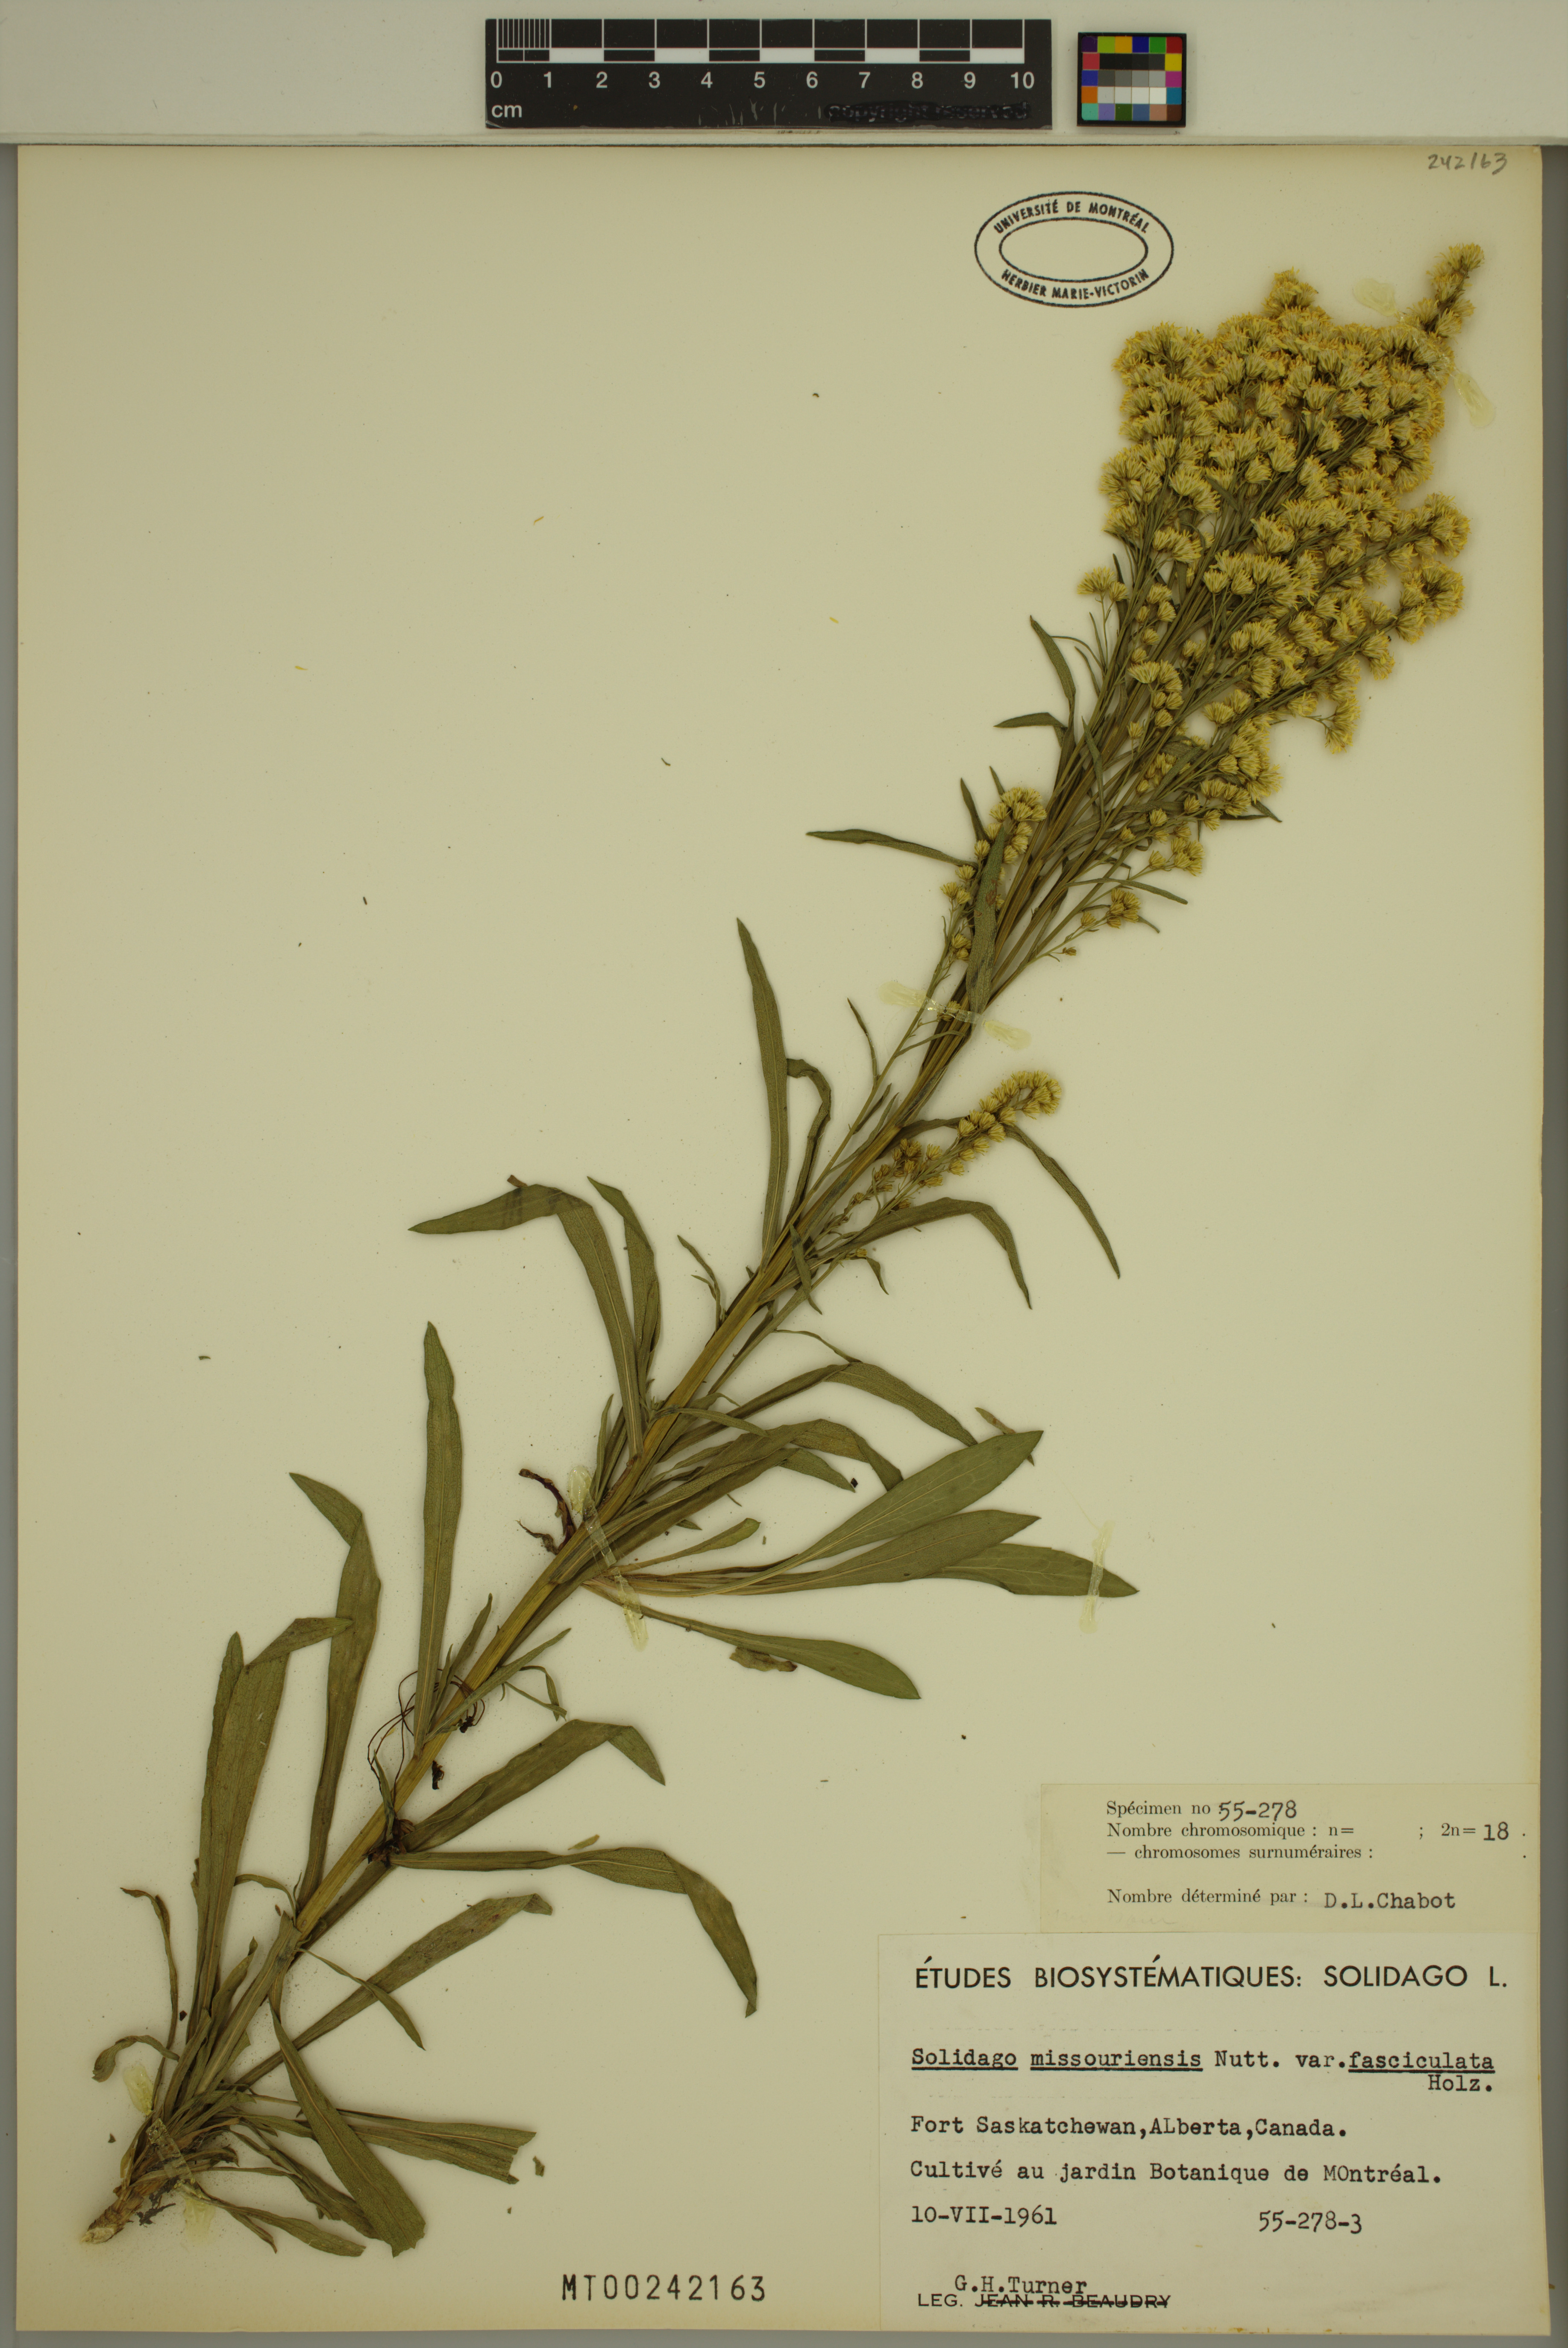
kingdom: Plantae
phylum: Tracheophyta
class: Magnoliopsida
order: Asterales
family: Asteraceae
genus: Solidago
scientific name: Solidago missouriensis
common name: Prairie goldenrod
